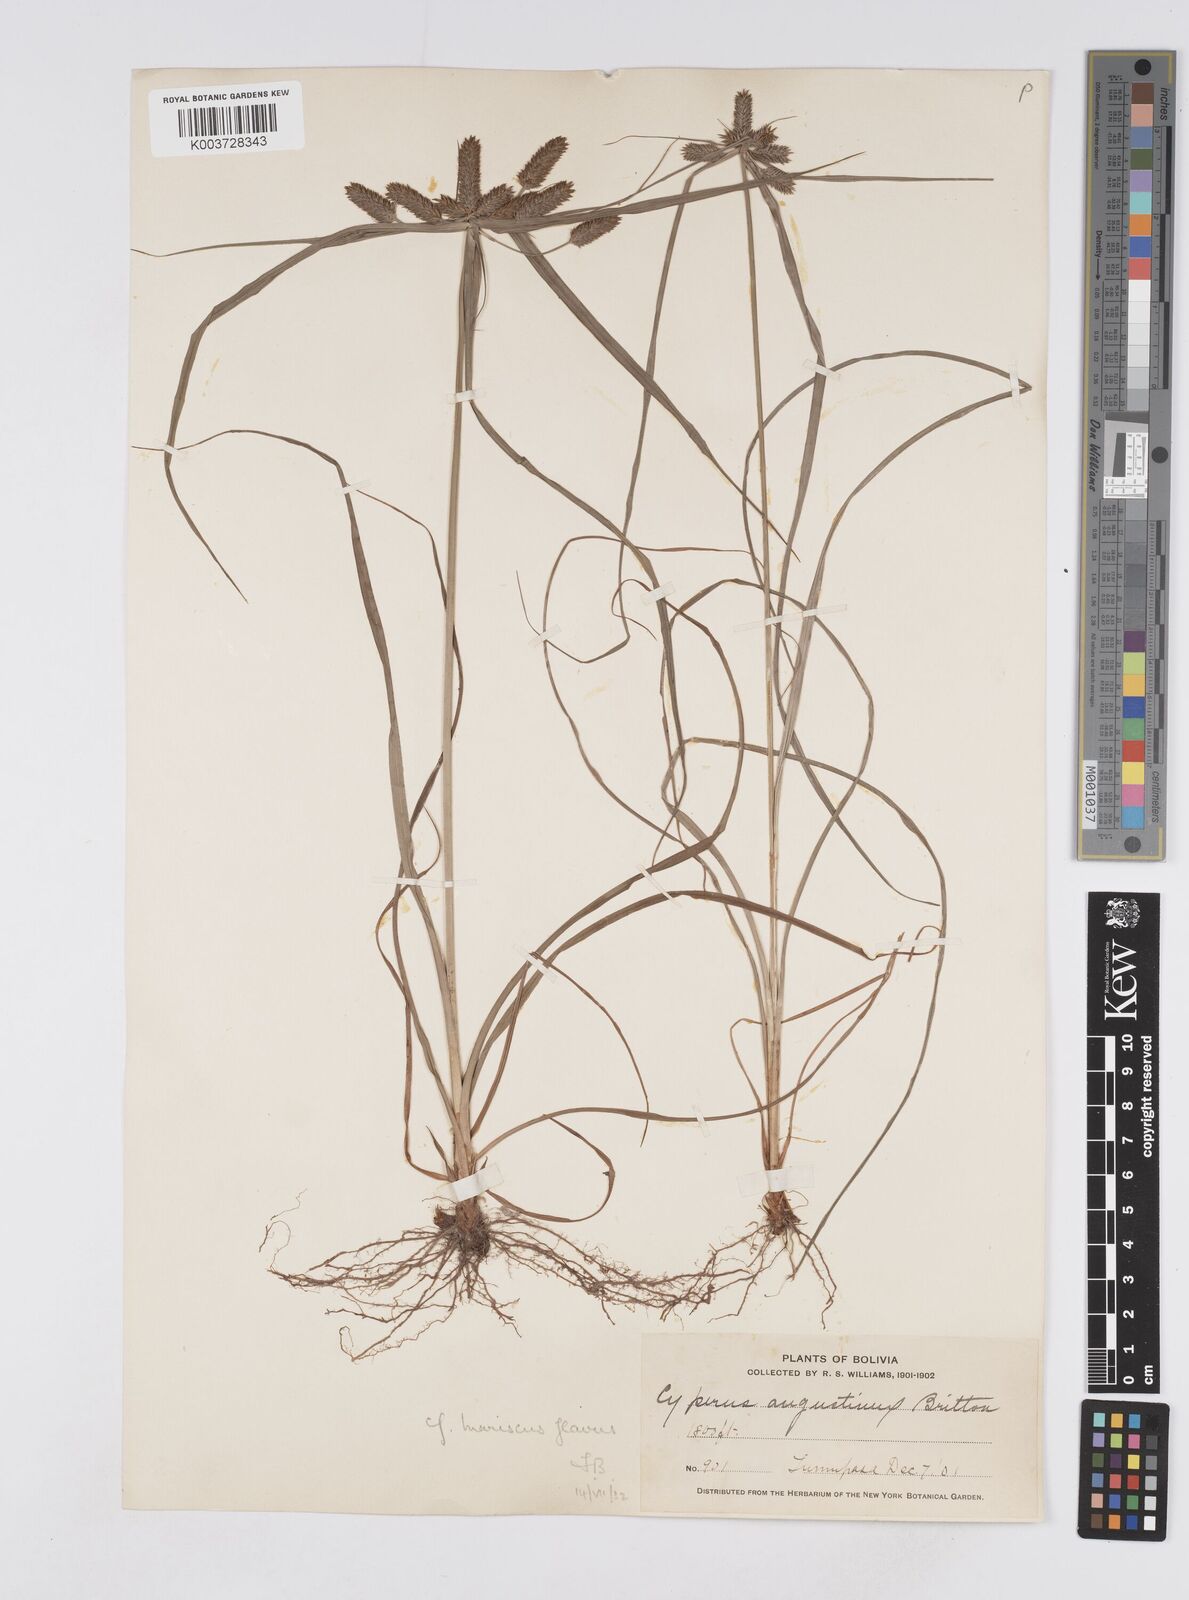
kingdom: Plantae
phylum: Tracheophyta
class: Liliopsida
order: Poales
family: Cyperaceae
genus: Cyperus
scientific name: Cyperus leonensis
